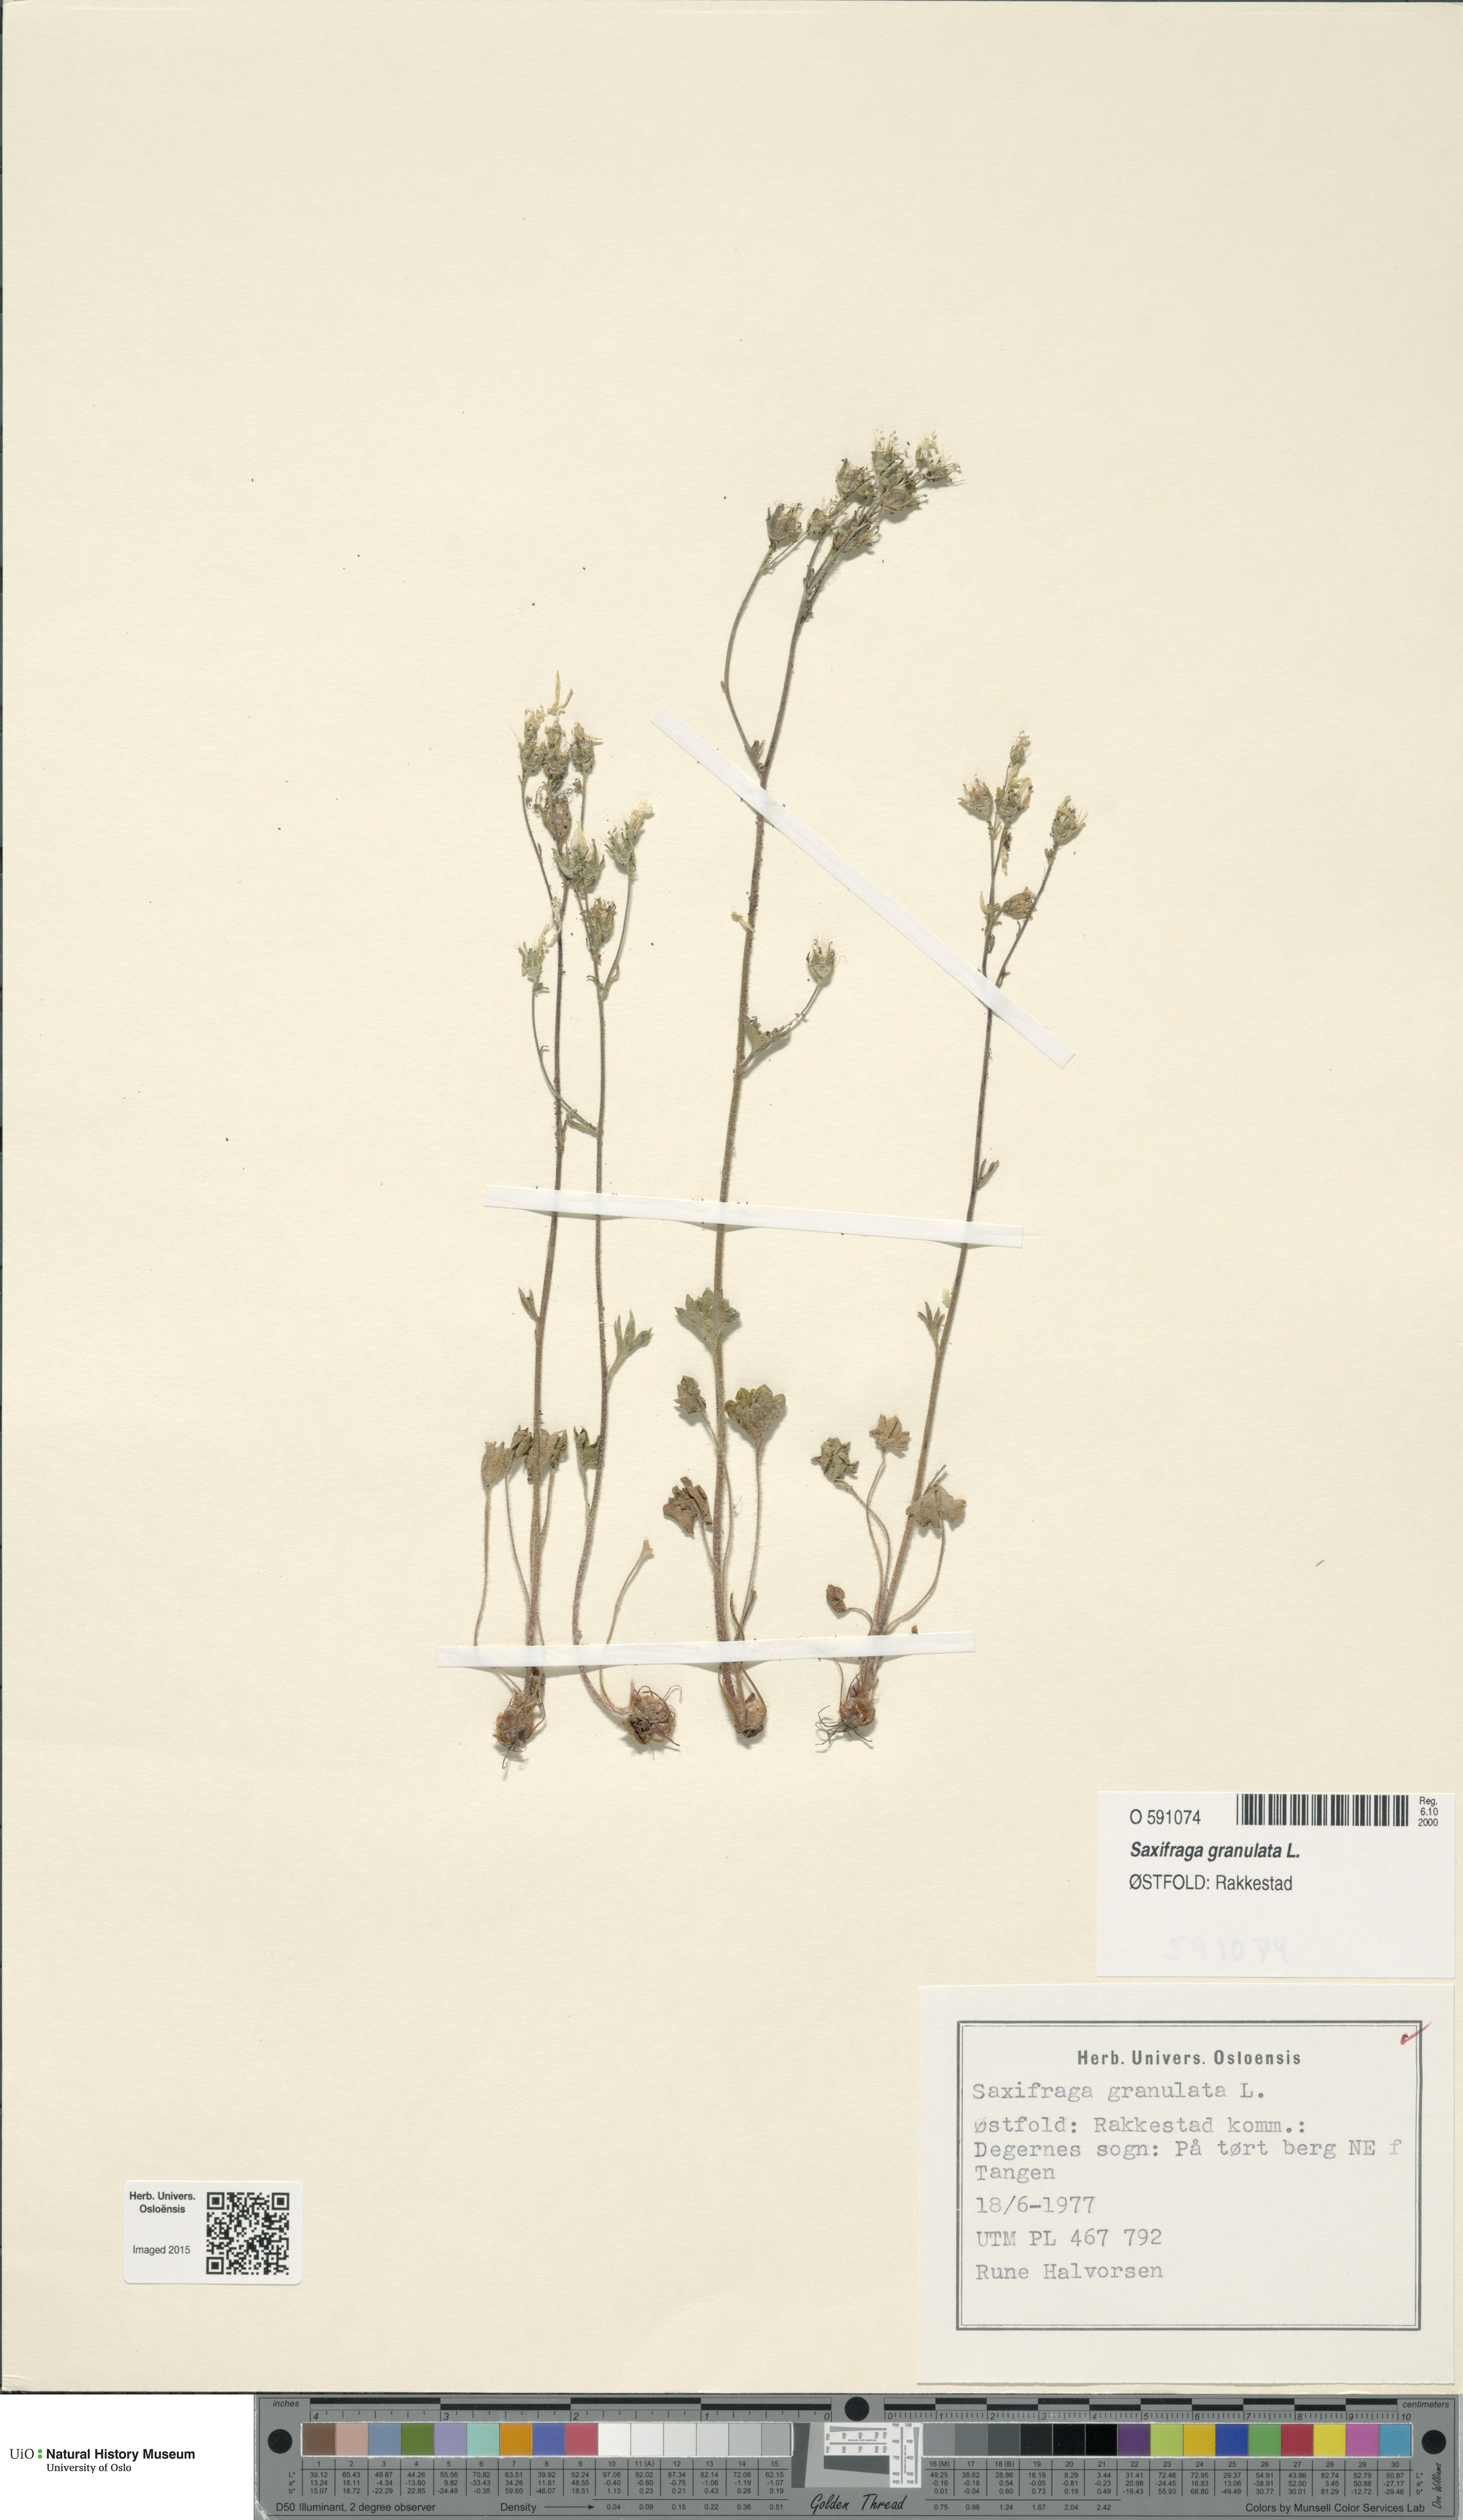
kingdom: Plantae
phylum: Tracheophyta
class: Magnoliopsida
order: Saxifragales
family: Saxifragaceae
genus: Saxifraga
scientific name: Saxifraga granulata
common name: Meadow saxifrage
